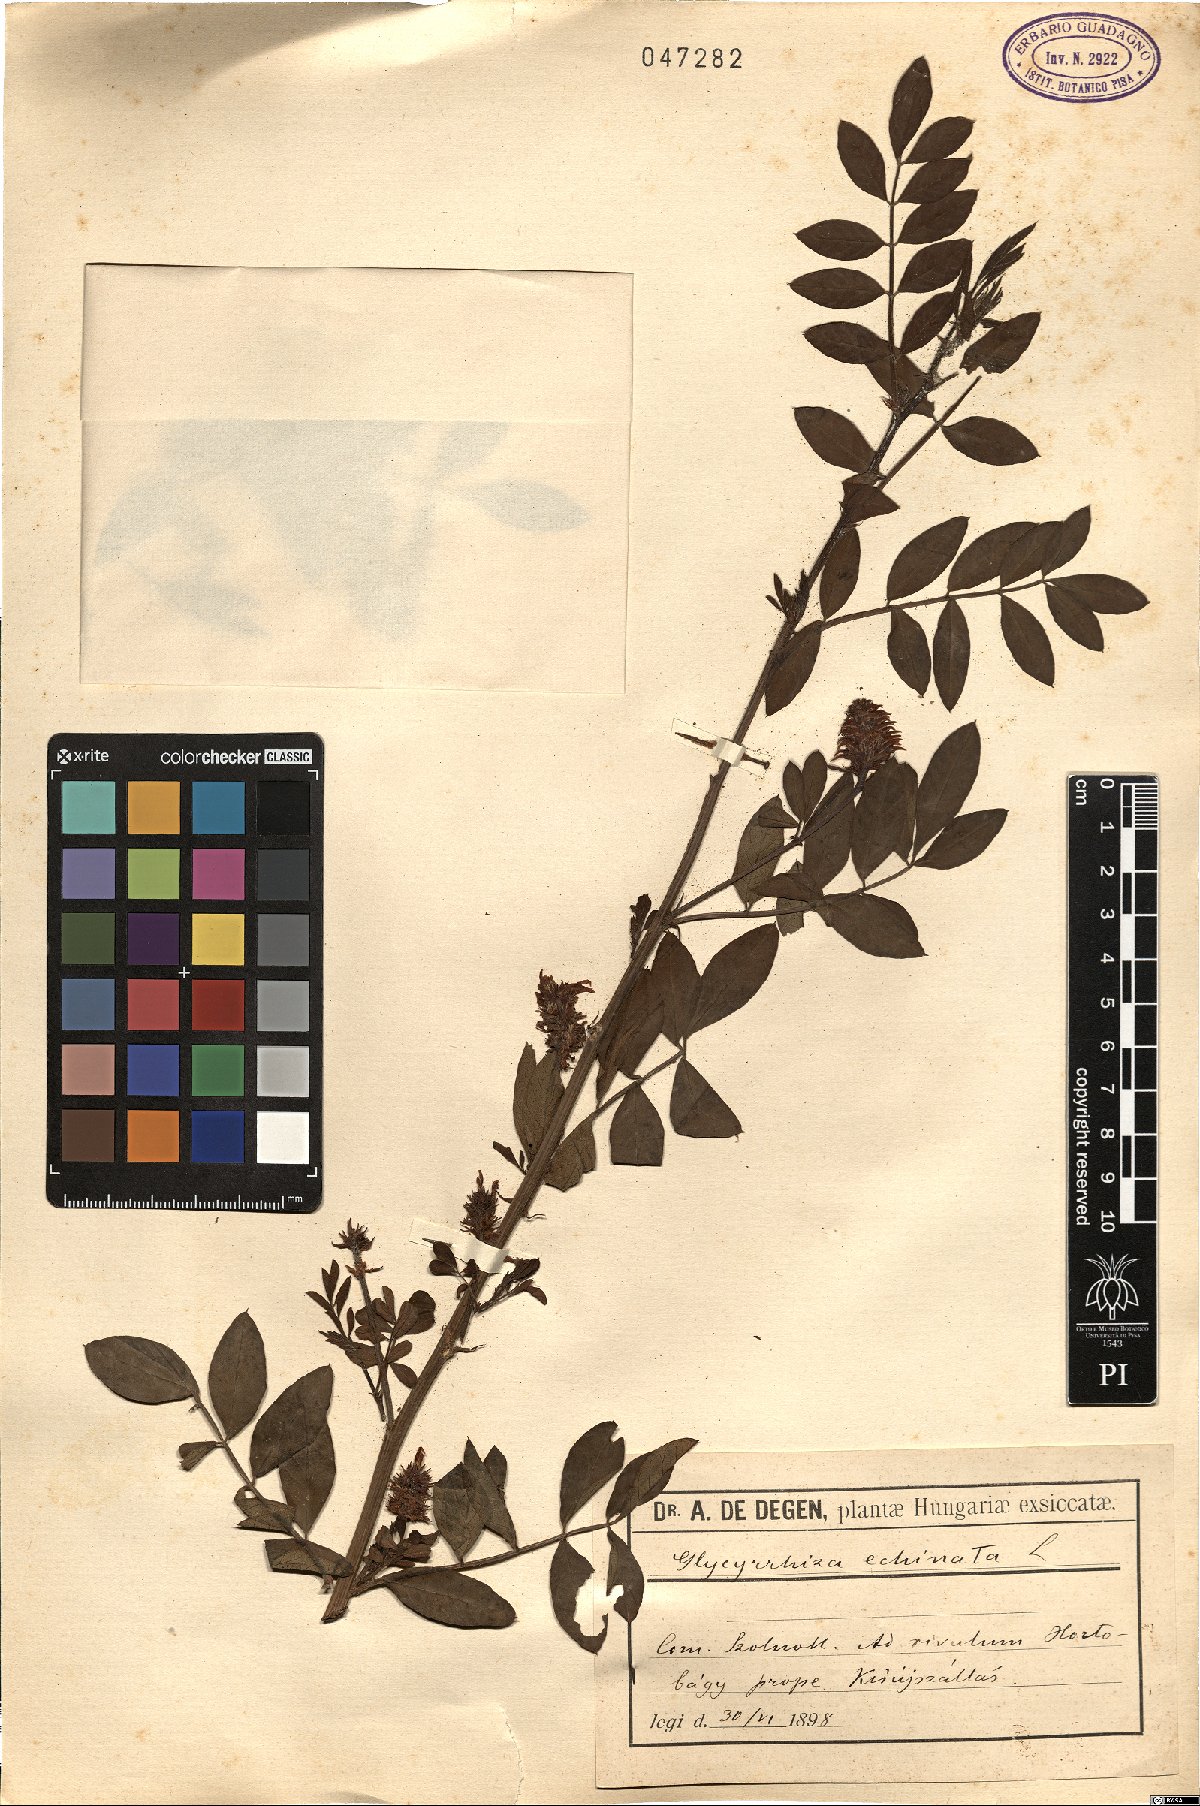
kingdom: Plantae
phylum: Tracheophyta
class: Magnoliopsida
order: Fabales
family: Fabaceae
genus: Glycyrrhiza
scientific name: Glycyrrhiza echinata
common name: German liquorice
